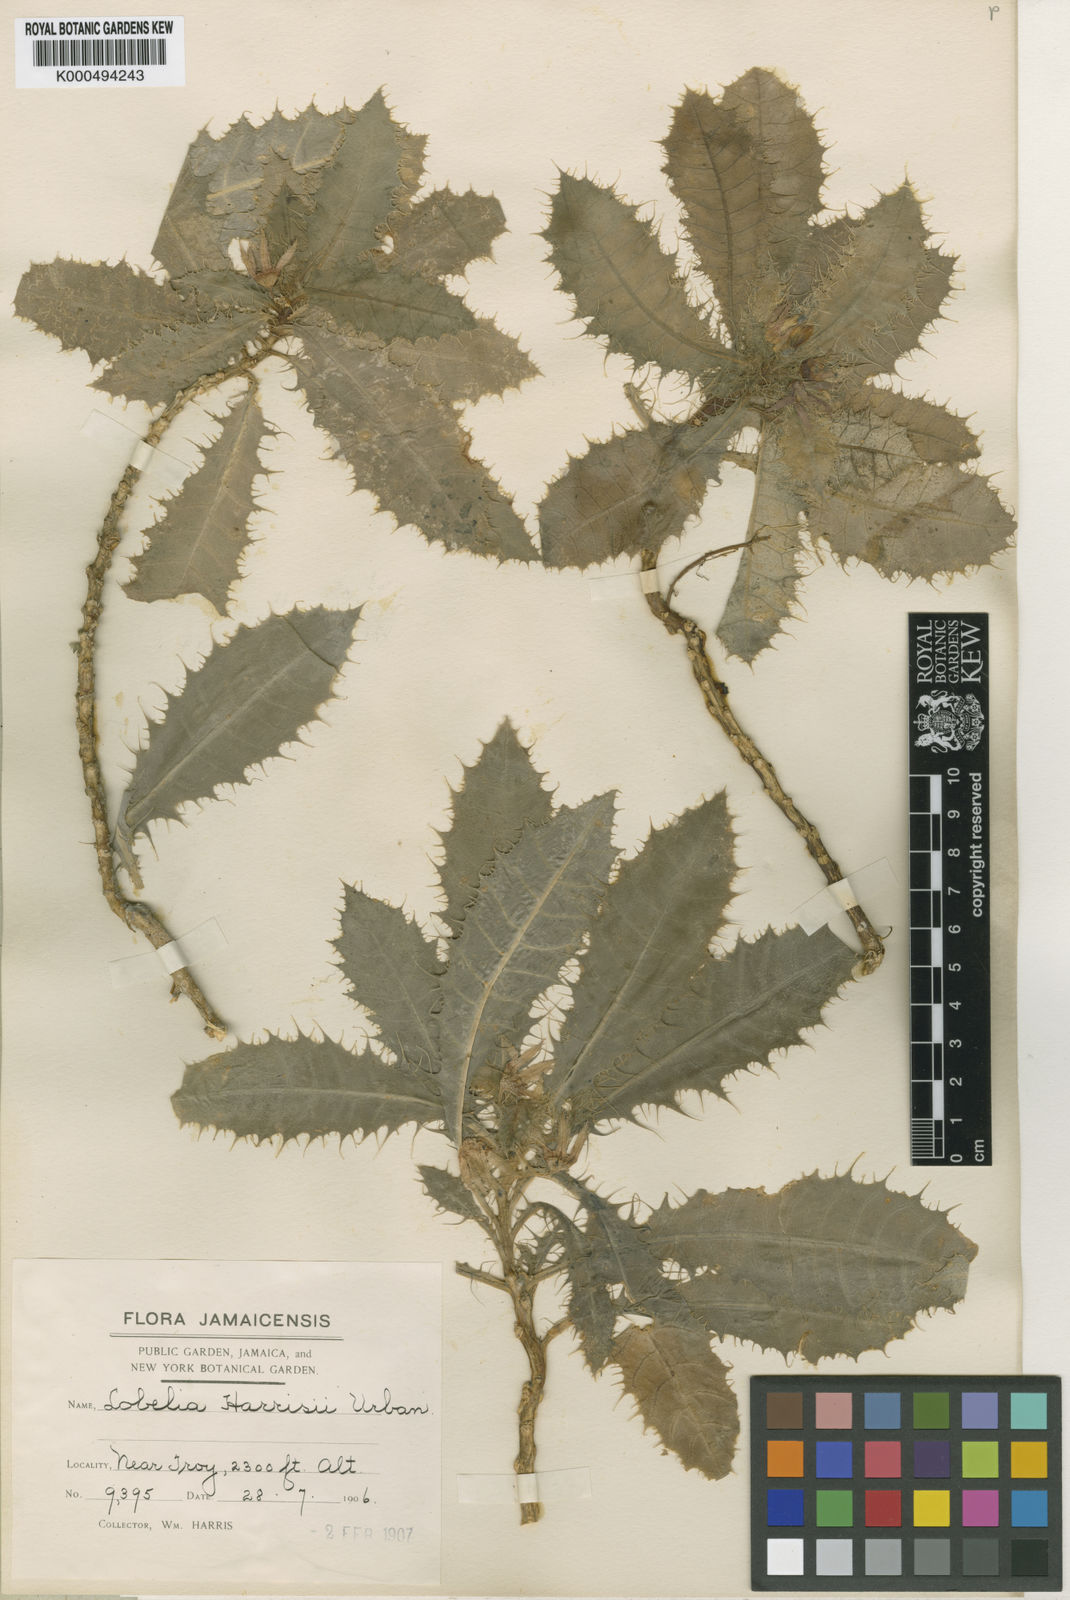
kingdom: Plantae
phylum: Tracheophyta
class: Magnoliopsida
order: Asterales
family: Campanulaceae
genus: Lobelia
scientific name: Lobelia harrisii
